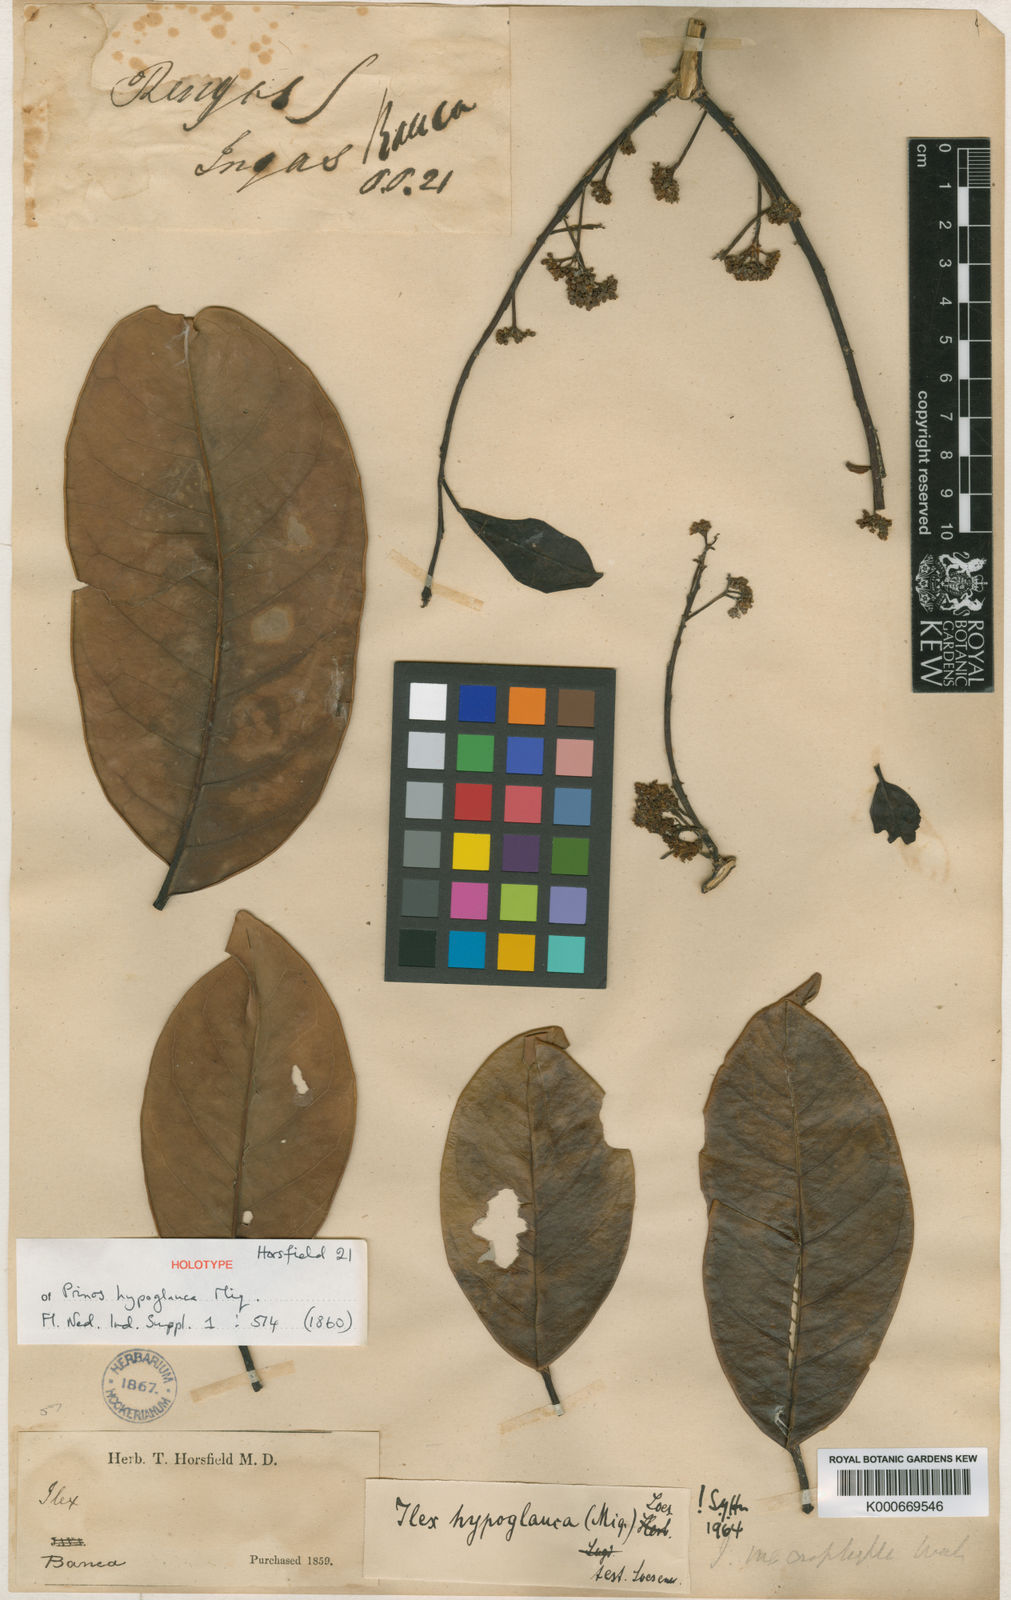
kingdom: Plantae
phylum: Tracheophyta
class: Magnoliopsida
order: Aquifoliales
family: Aquifoliaceae
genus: Ilex
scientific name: Ilex hypoglauca
